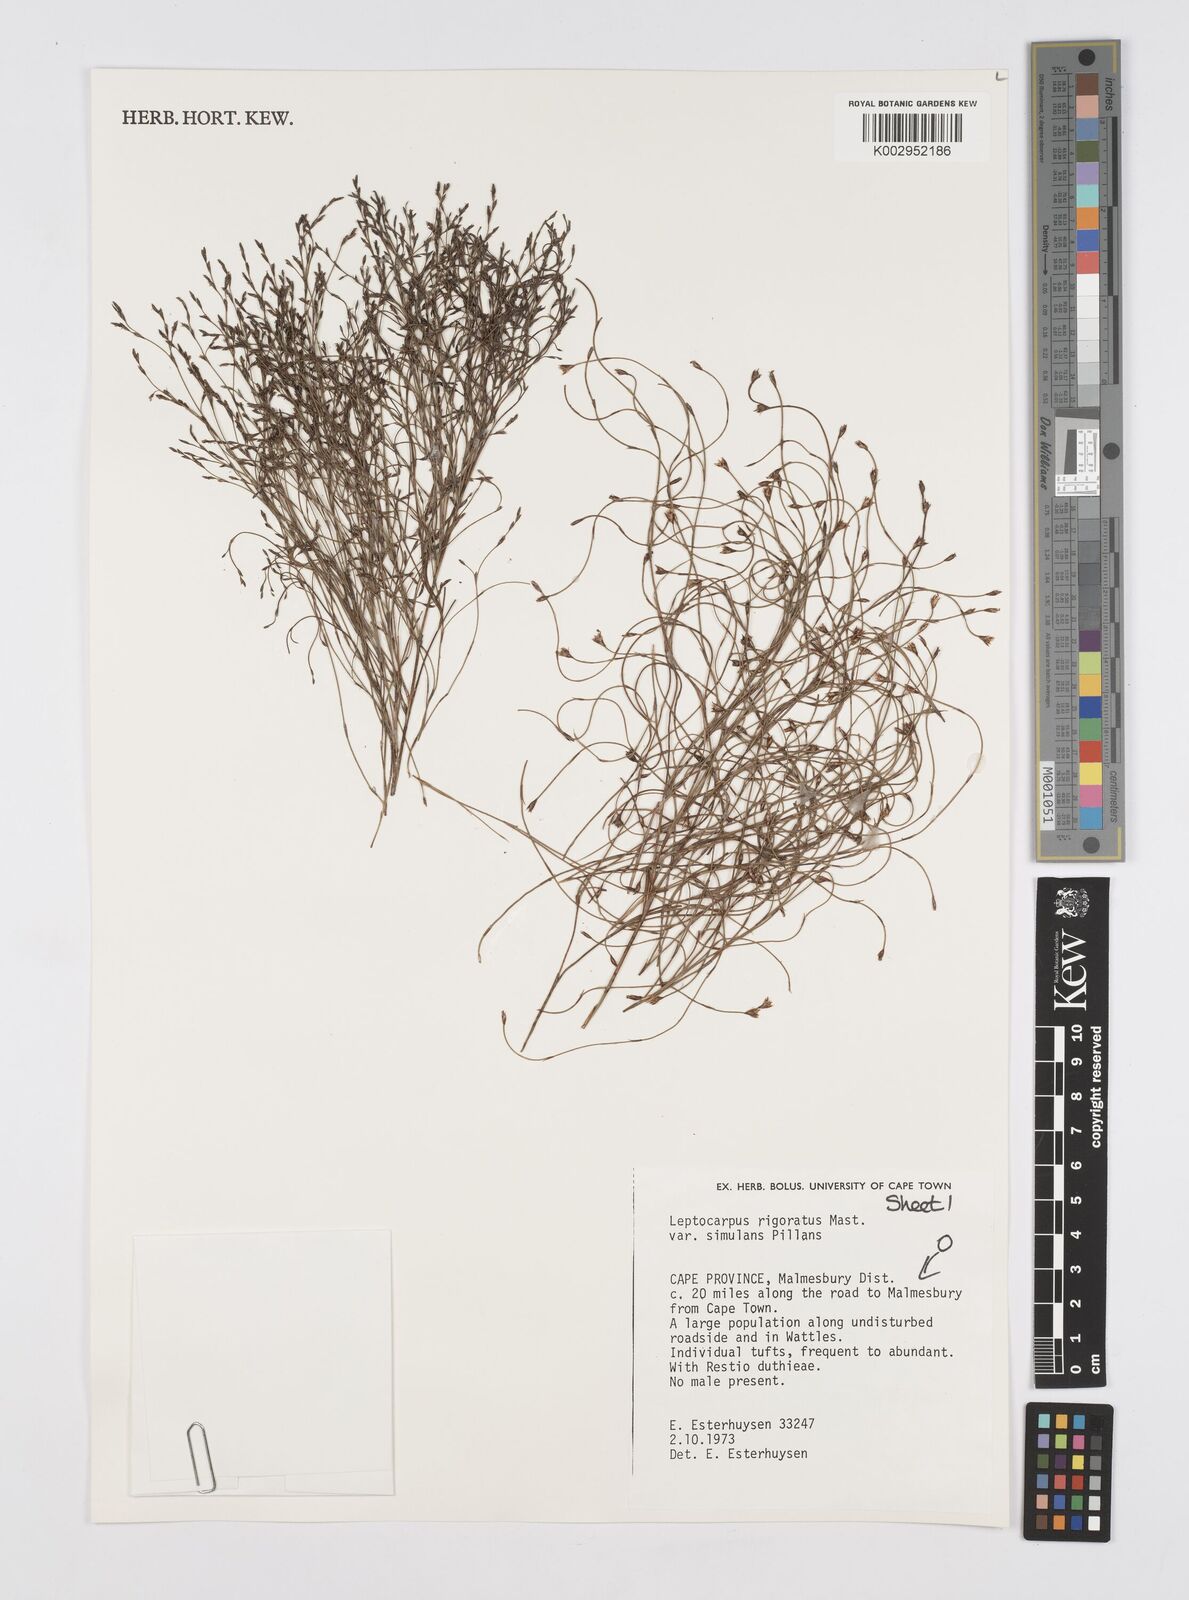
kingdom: Plantae
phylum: Tracheophyta
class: Liliopsida
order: Poales
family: Restionaceae
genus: Restio
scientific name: Restio rigoratus
